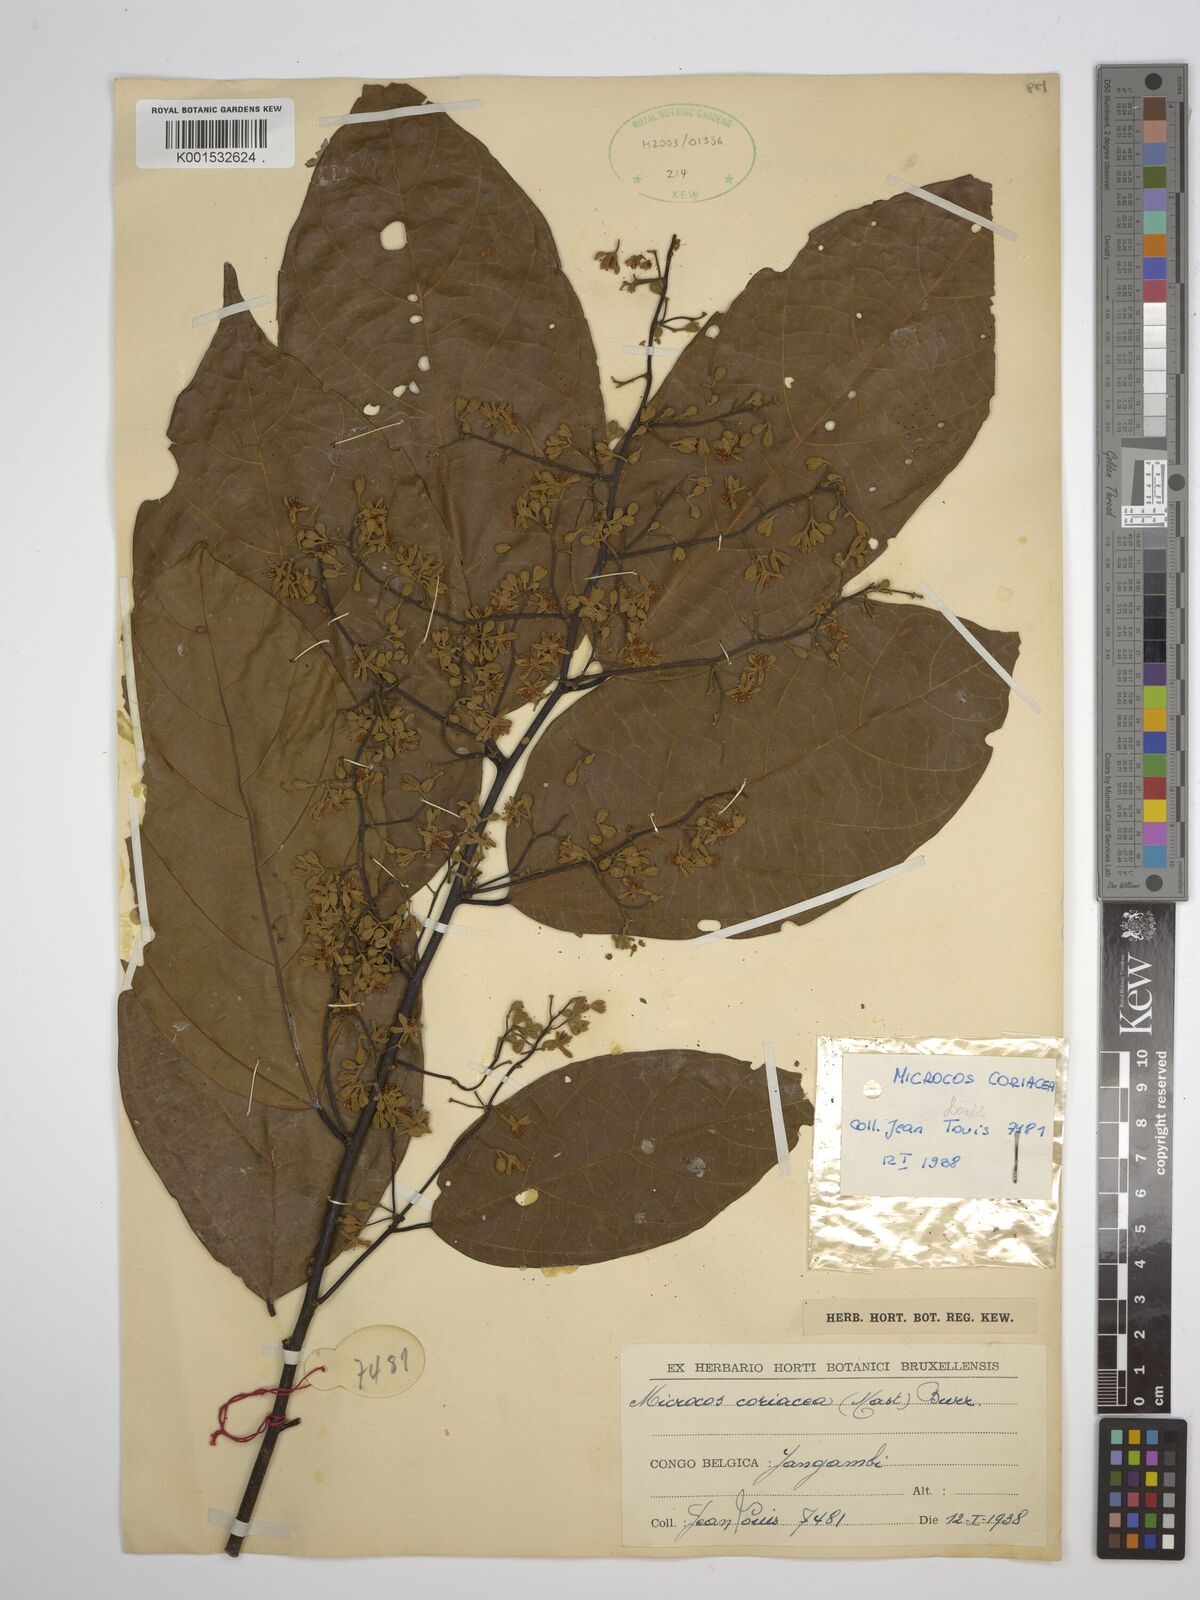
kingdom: Plantae
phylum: Tracheophyta
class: Magnoliopsida
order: Malvales
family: Malvaceae
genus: Microcos
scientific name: Microcos coriacea
